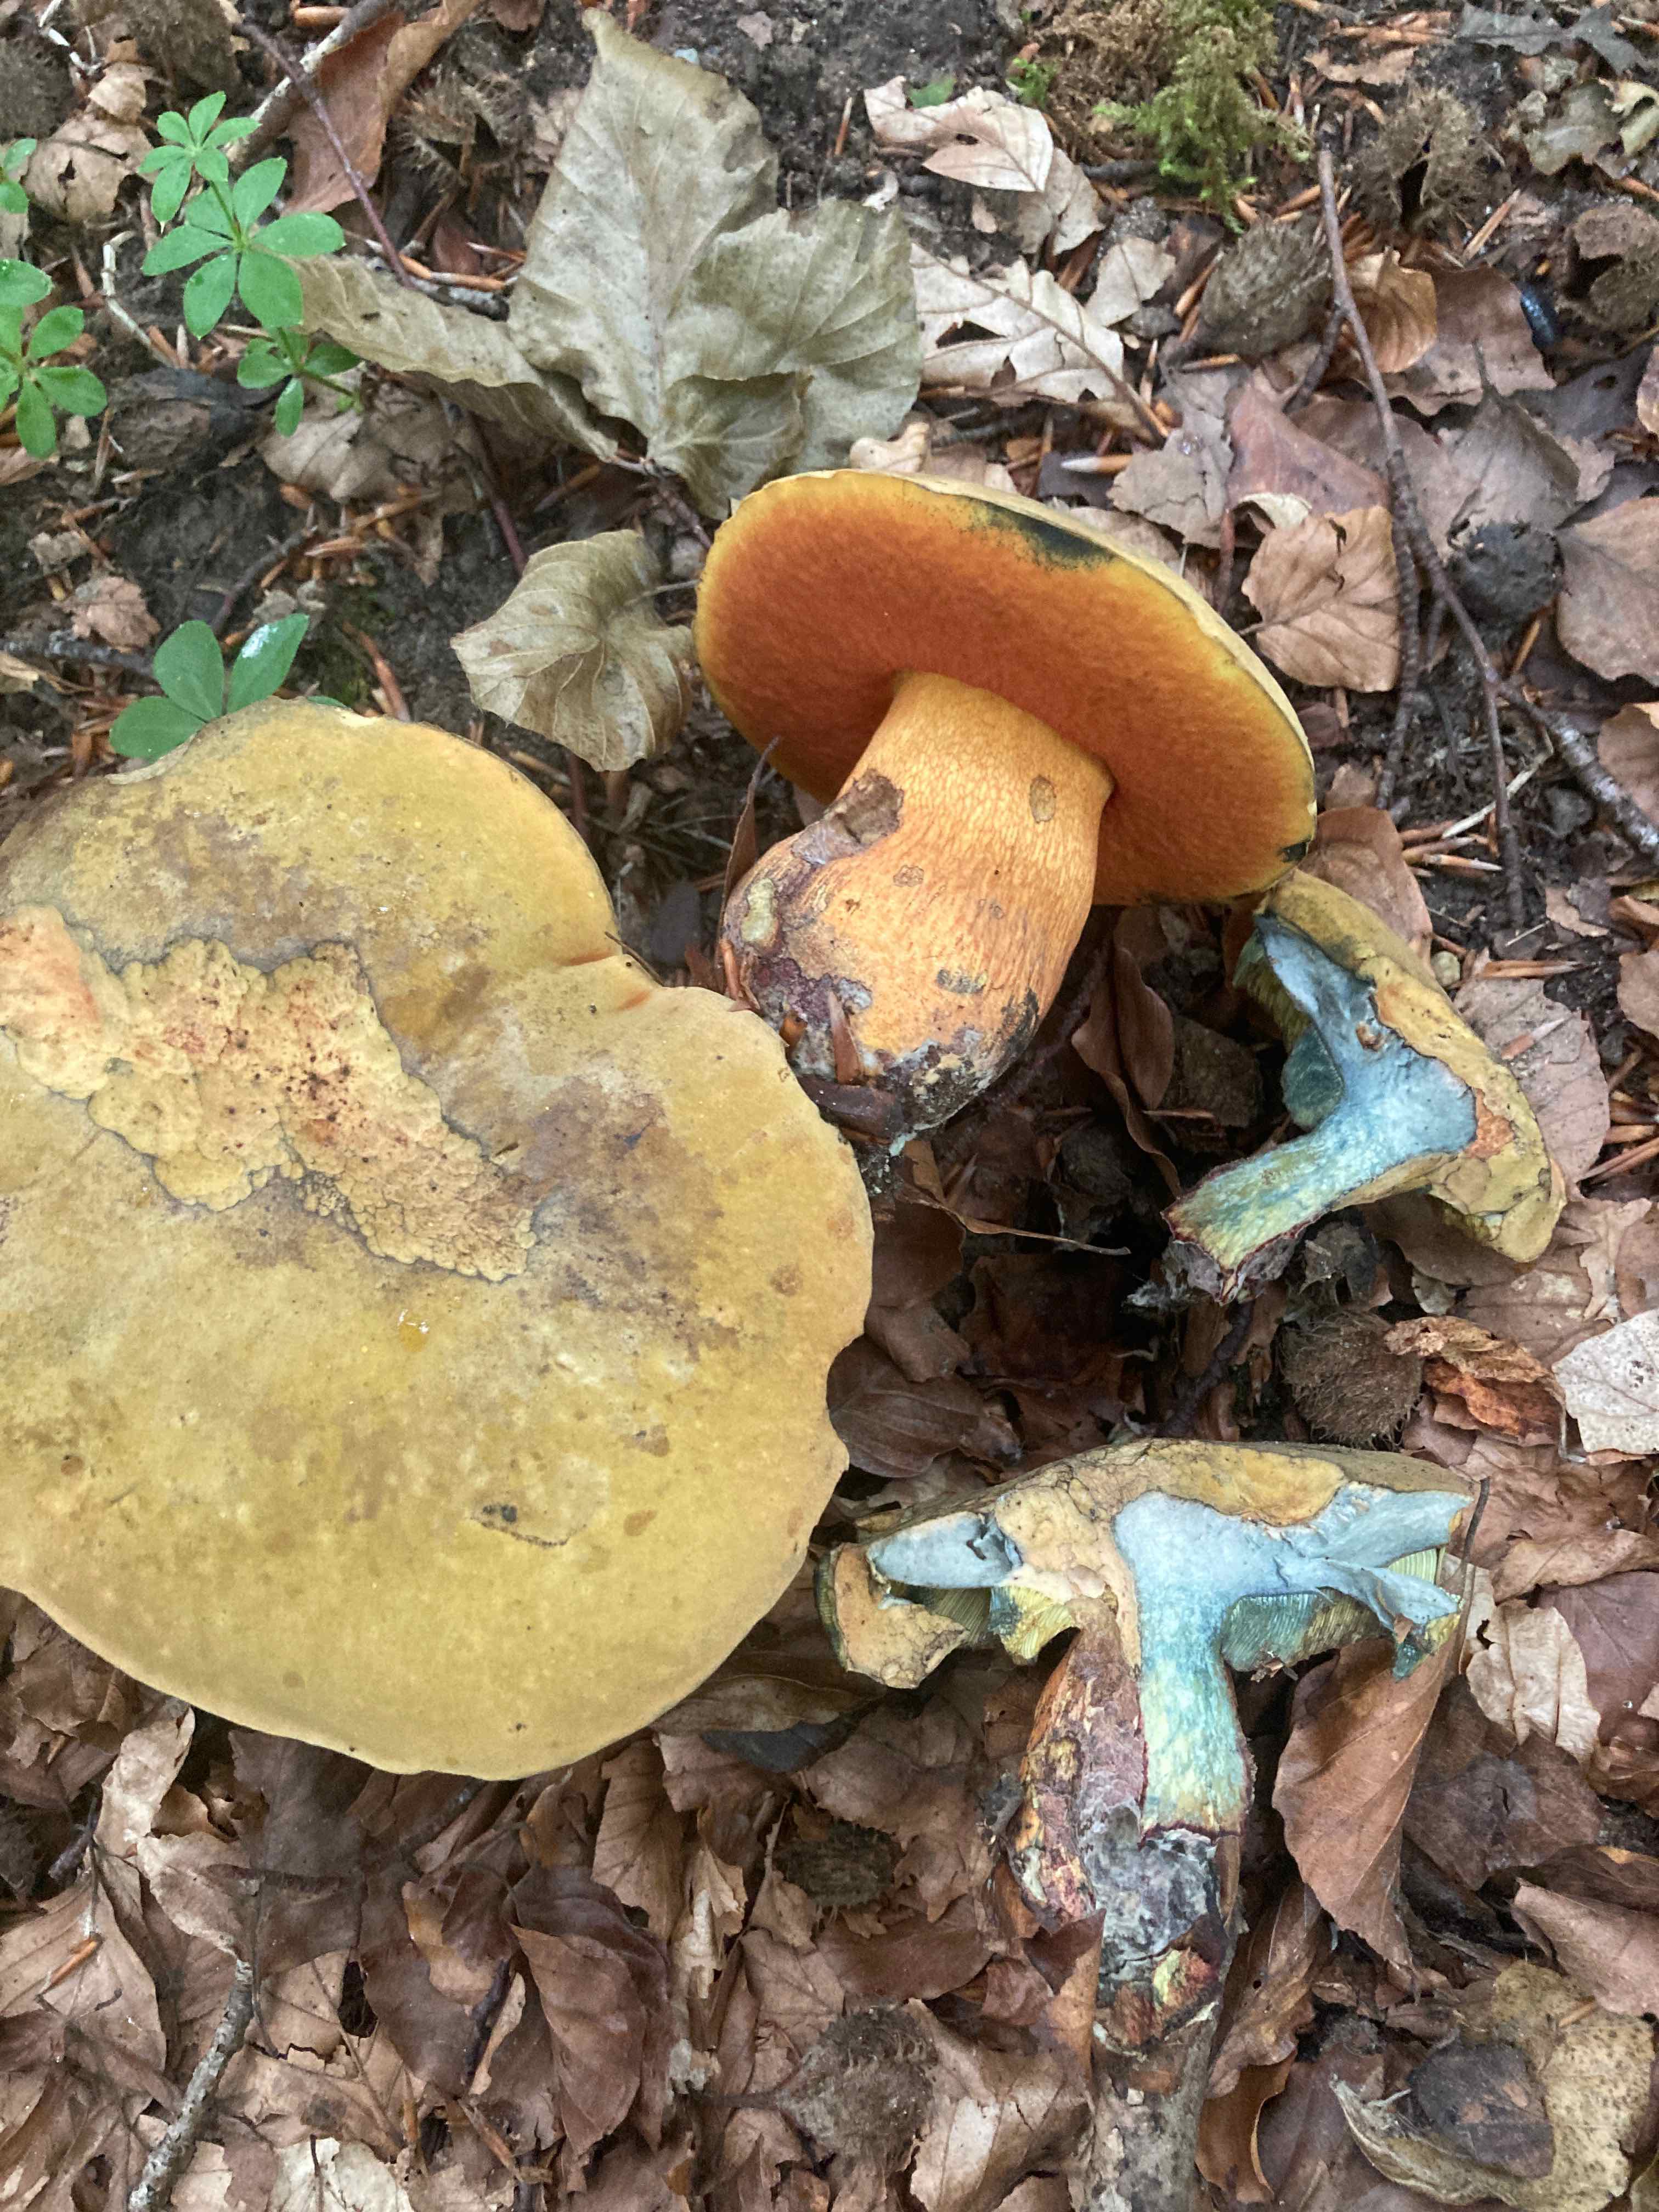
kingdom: Fungi
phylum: Basidiomycota
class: Agaricomycetes
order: Boletales
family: Boletaceae
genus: Suillellus
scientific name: Suillellus luridus
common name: netstokket indigorørhat
